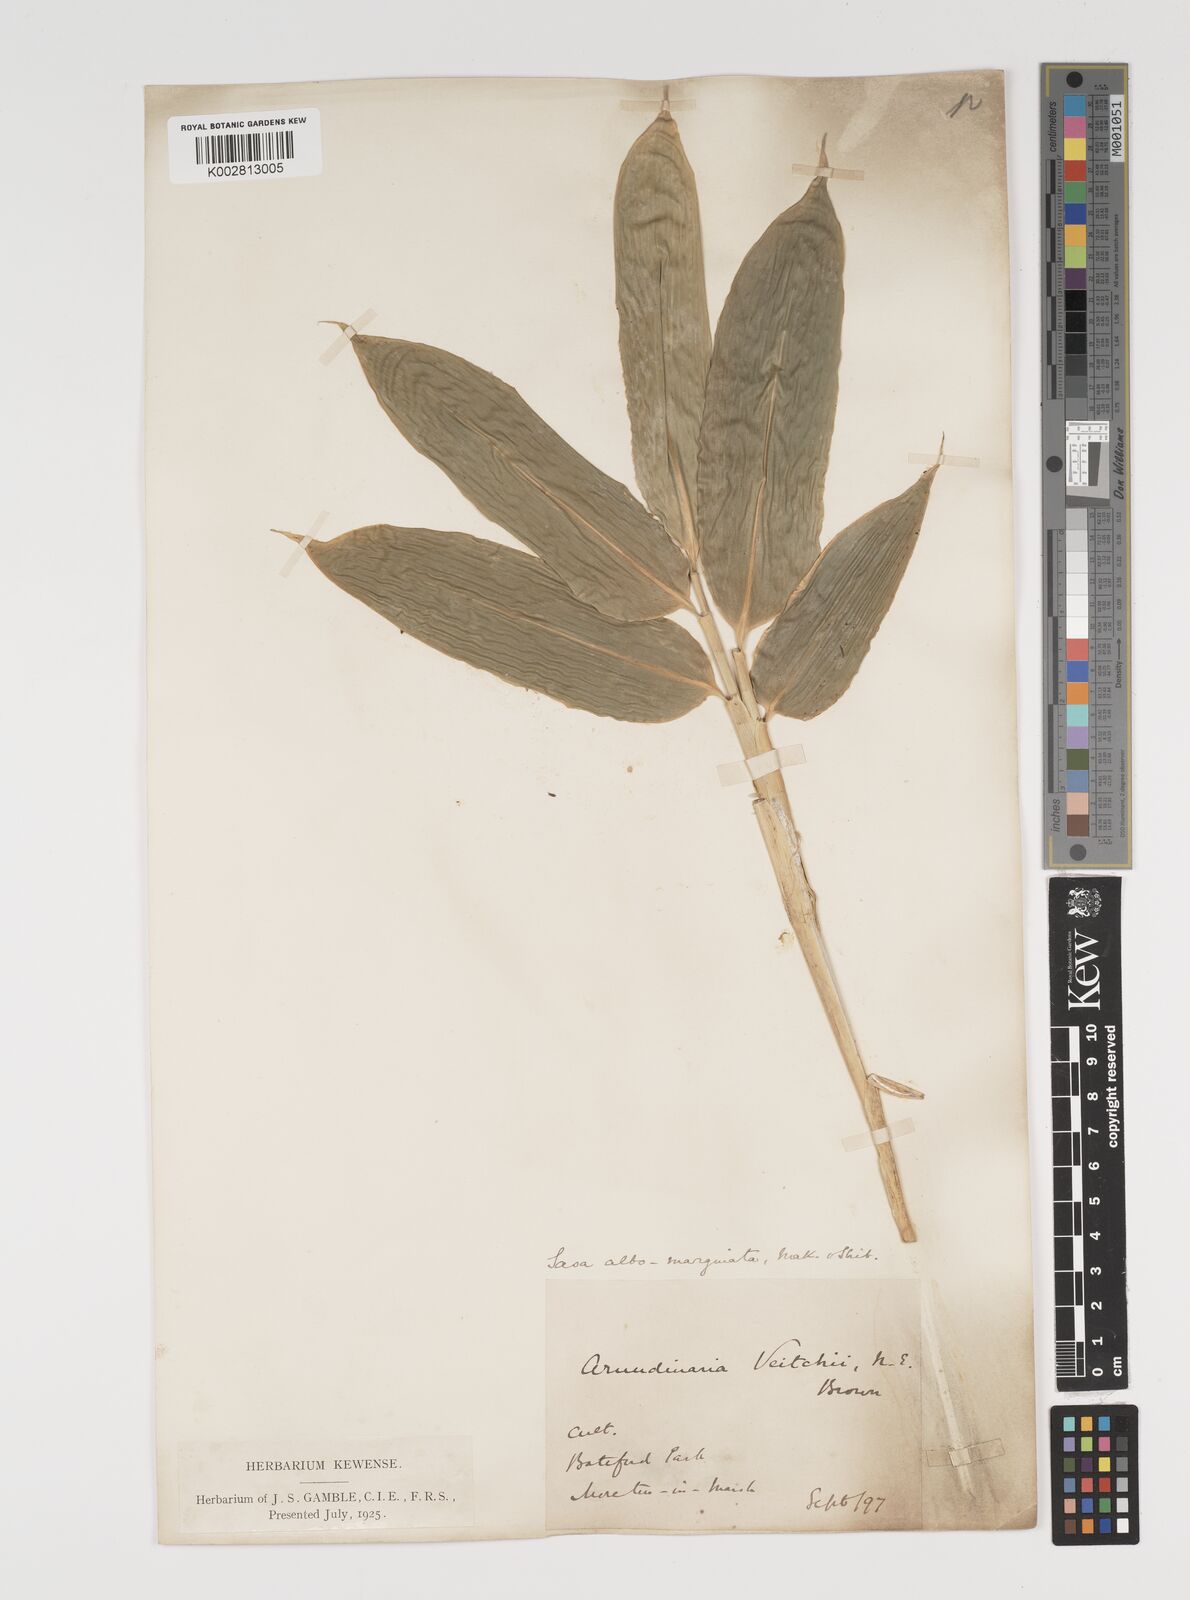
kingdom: Plantae
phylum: Tracheophyta
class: Liliopsida
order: Poales
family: Poaceae
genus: Sasa
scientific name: Sasa veitchii
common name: Veitch's bamboo
